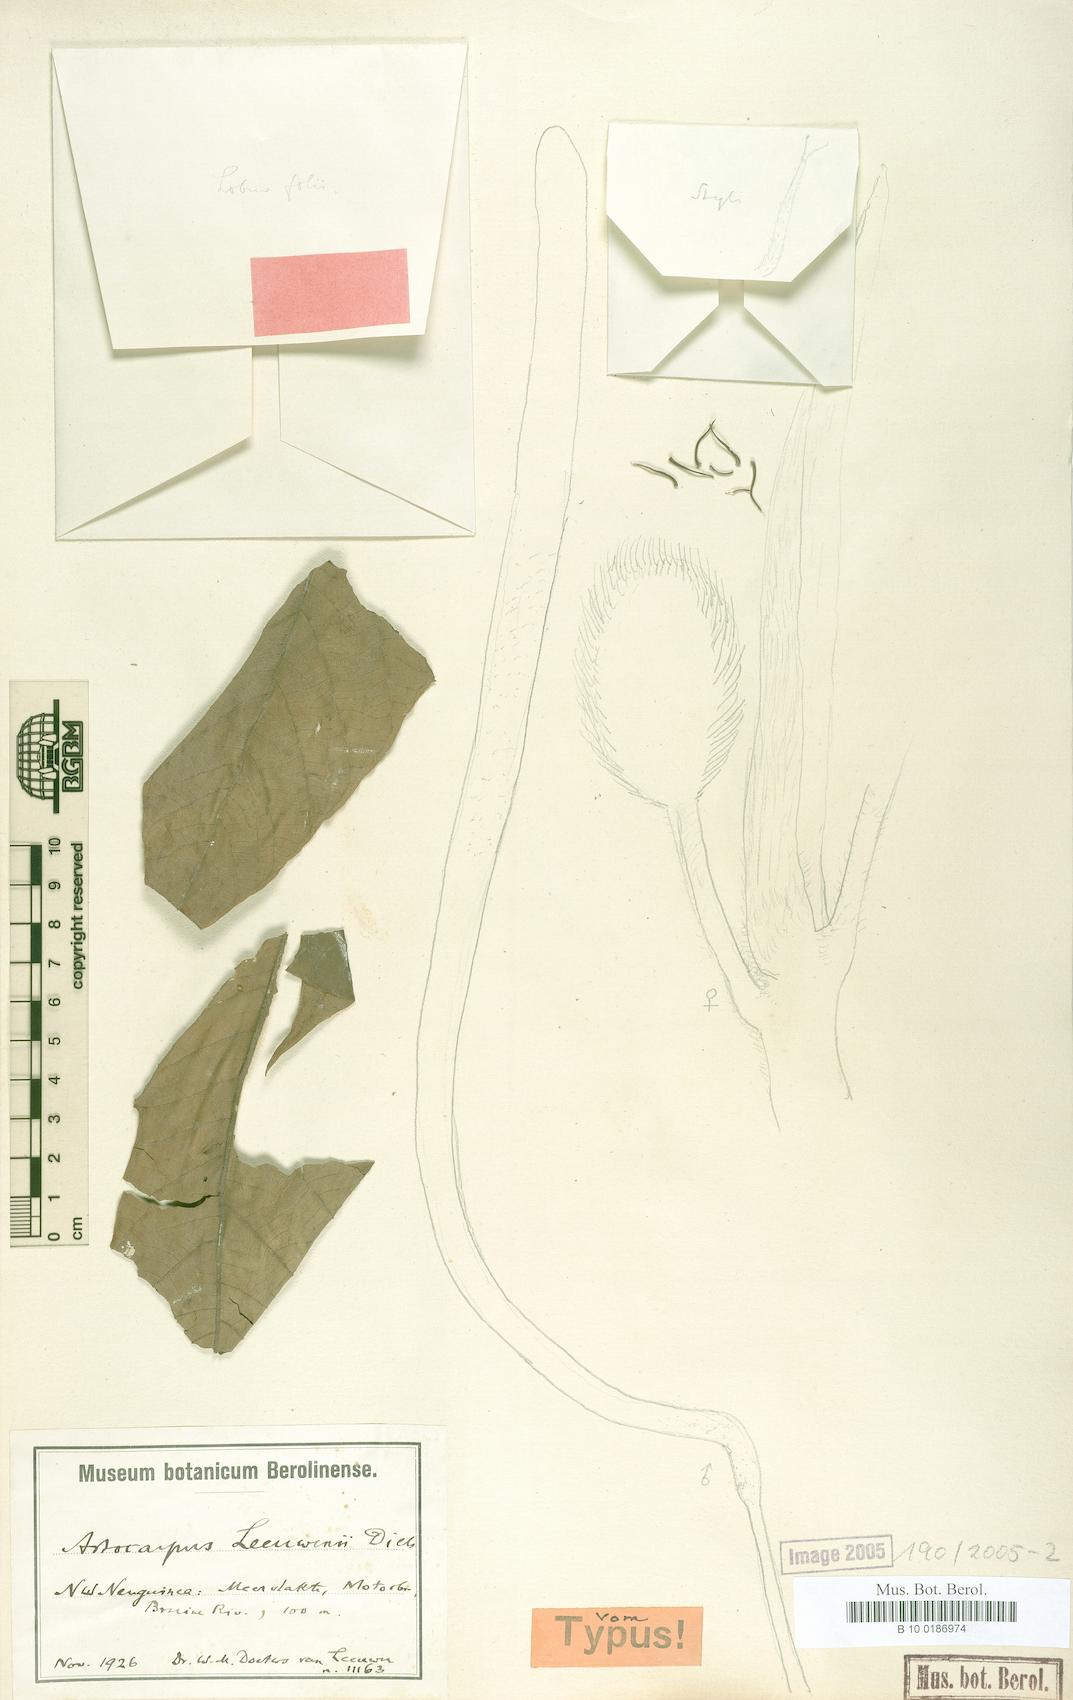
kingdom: Plantae
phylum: Tracheophyta
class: Magnoliopsida
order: Rosales
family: Moraceae
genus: Artocarpus
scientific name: Artocarpus altilis
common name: Breadfruit
